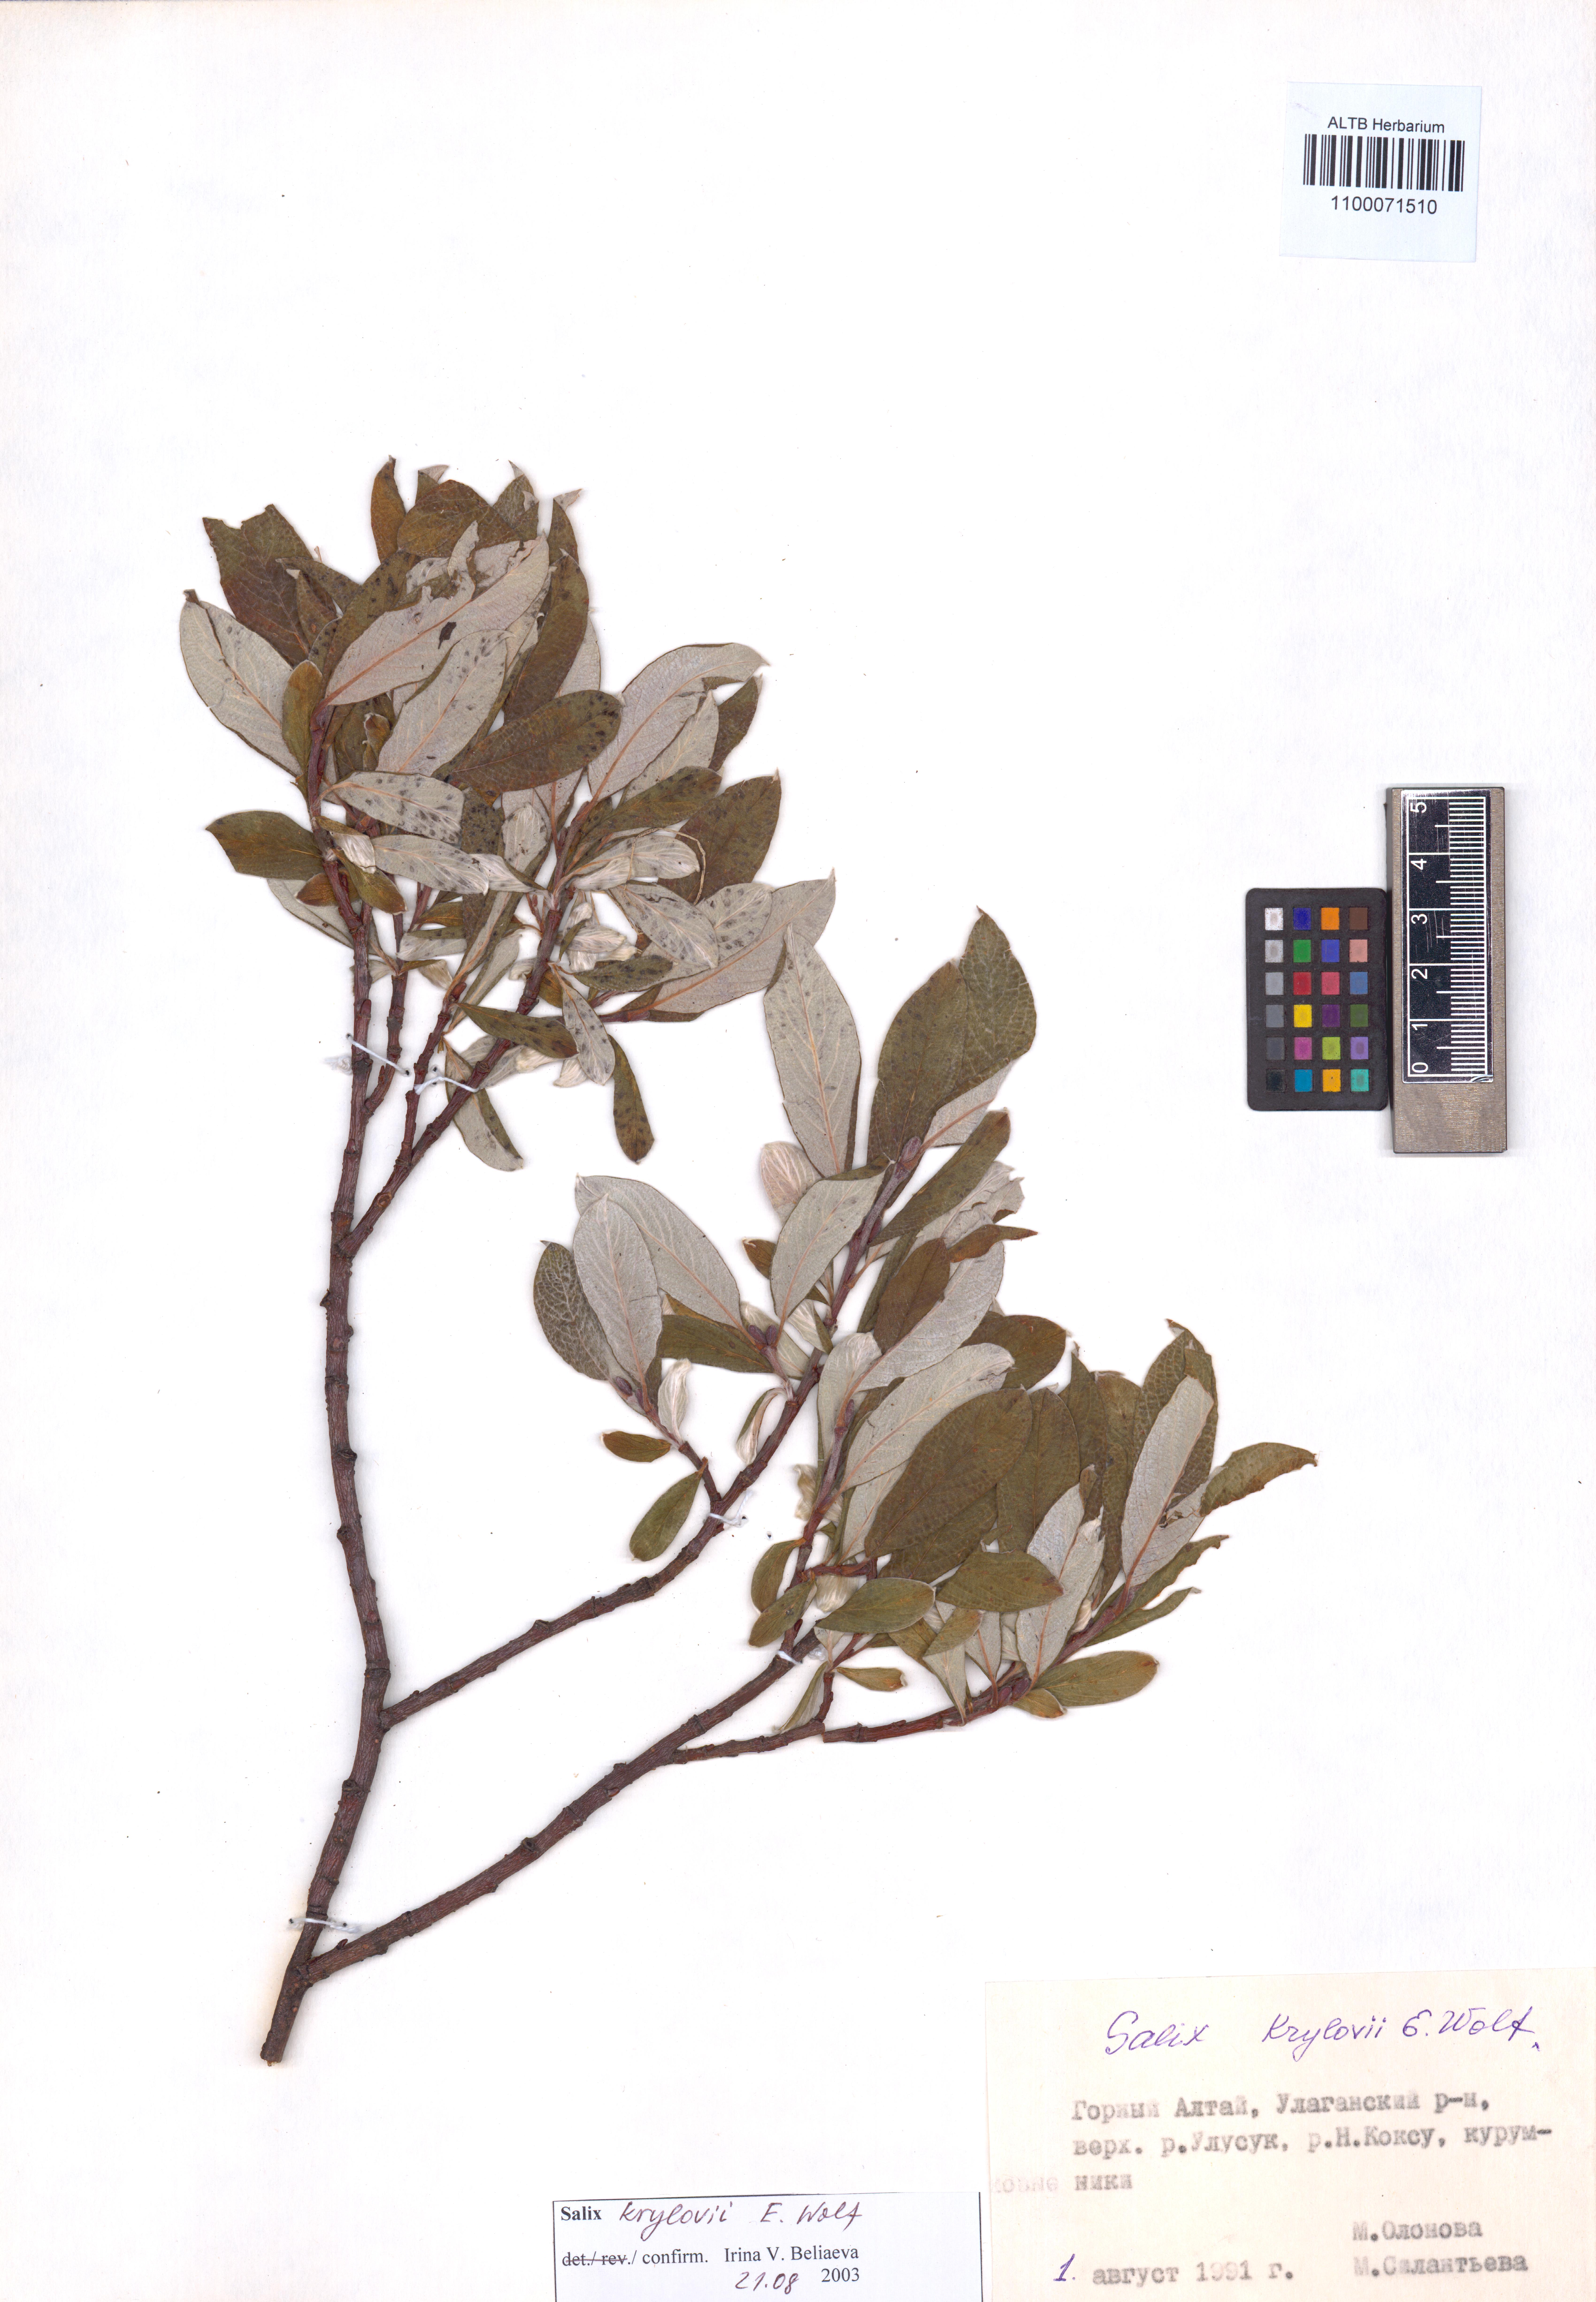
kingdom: Plantae
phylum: Tracheophyta
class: Magnoliopsida
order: Malpighiales
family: Salicaceae
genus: Salix
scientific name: Salix krylovii
